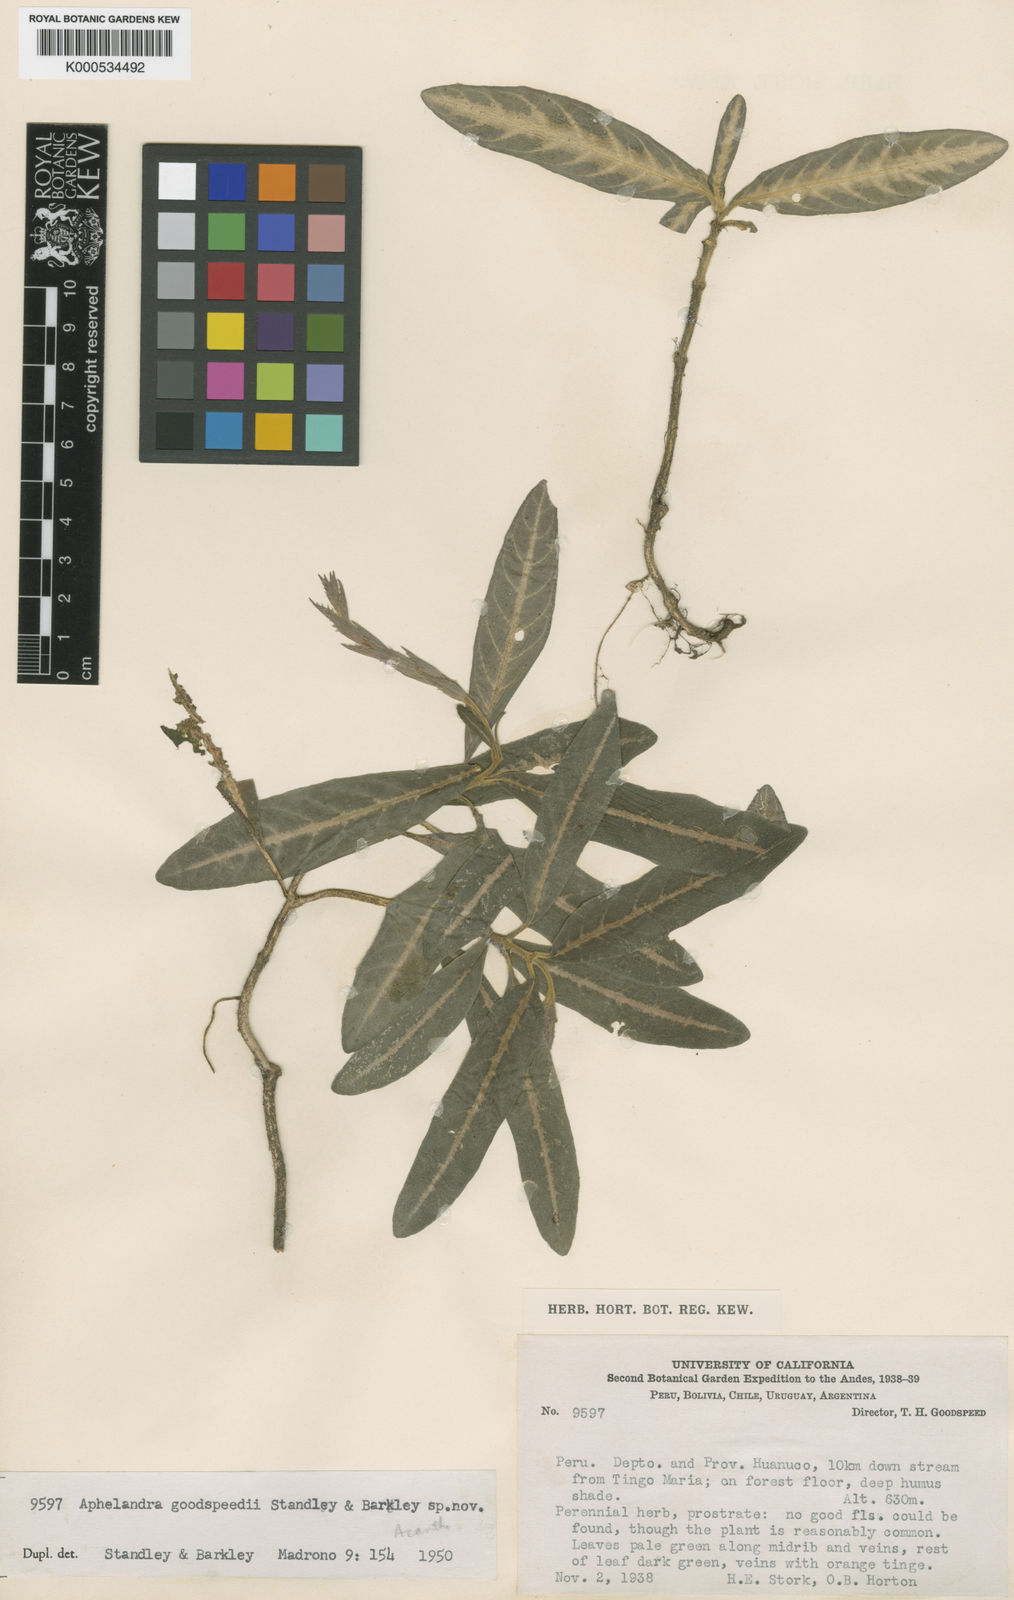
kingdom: Plantae
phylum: Tracheophyta
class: Magnoliopsida
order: Lamiales
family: Acanthaceae
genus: Aphelandra
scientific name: Aphelandra maculata
